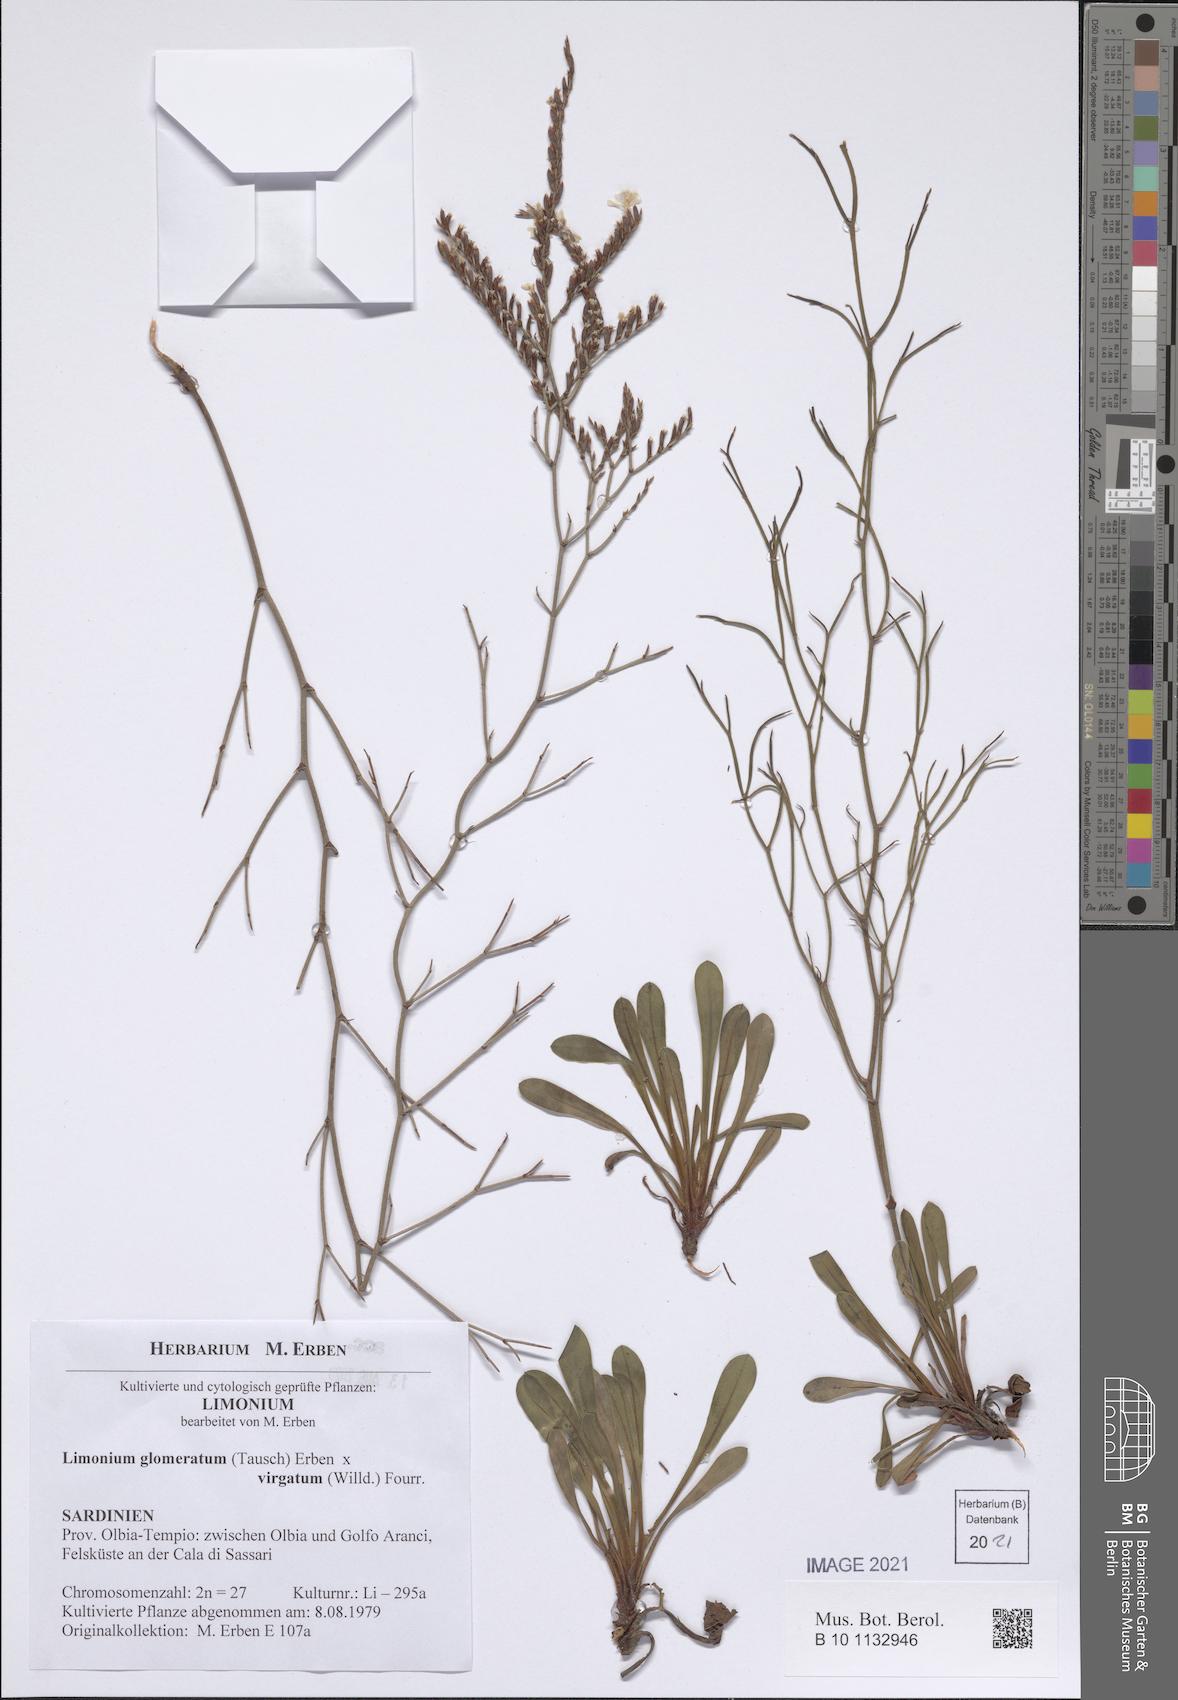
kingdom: Plantae
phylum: Tracheophyta
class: Magnoliopsida
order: Caryophyllales
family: Plumbaginaceae
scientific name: Plumbaginaceae
